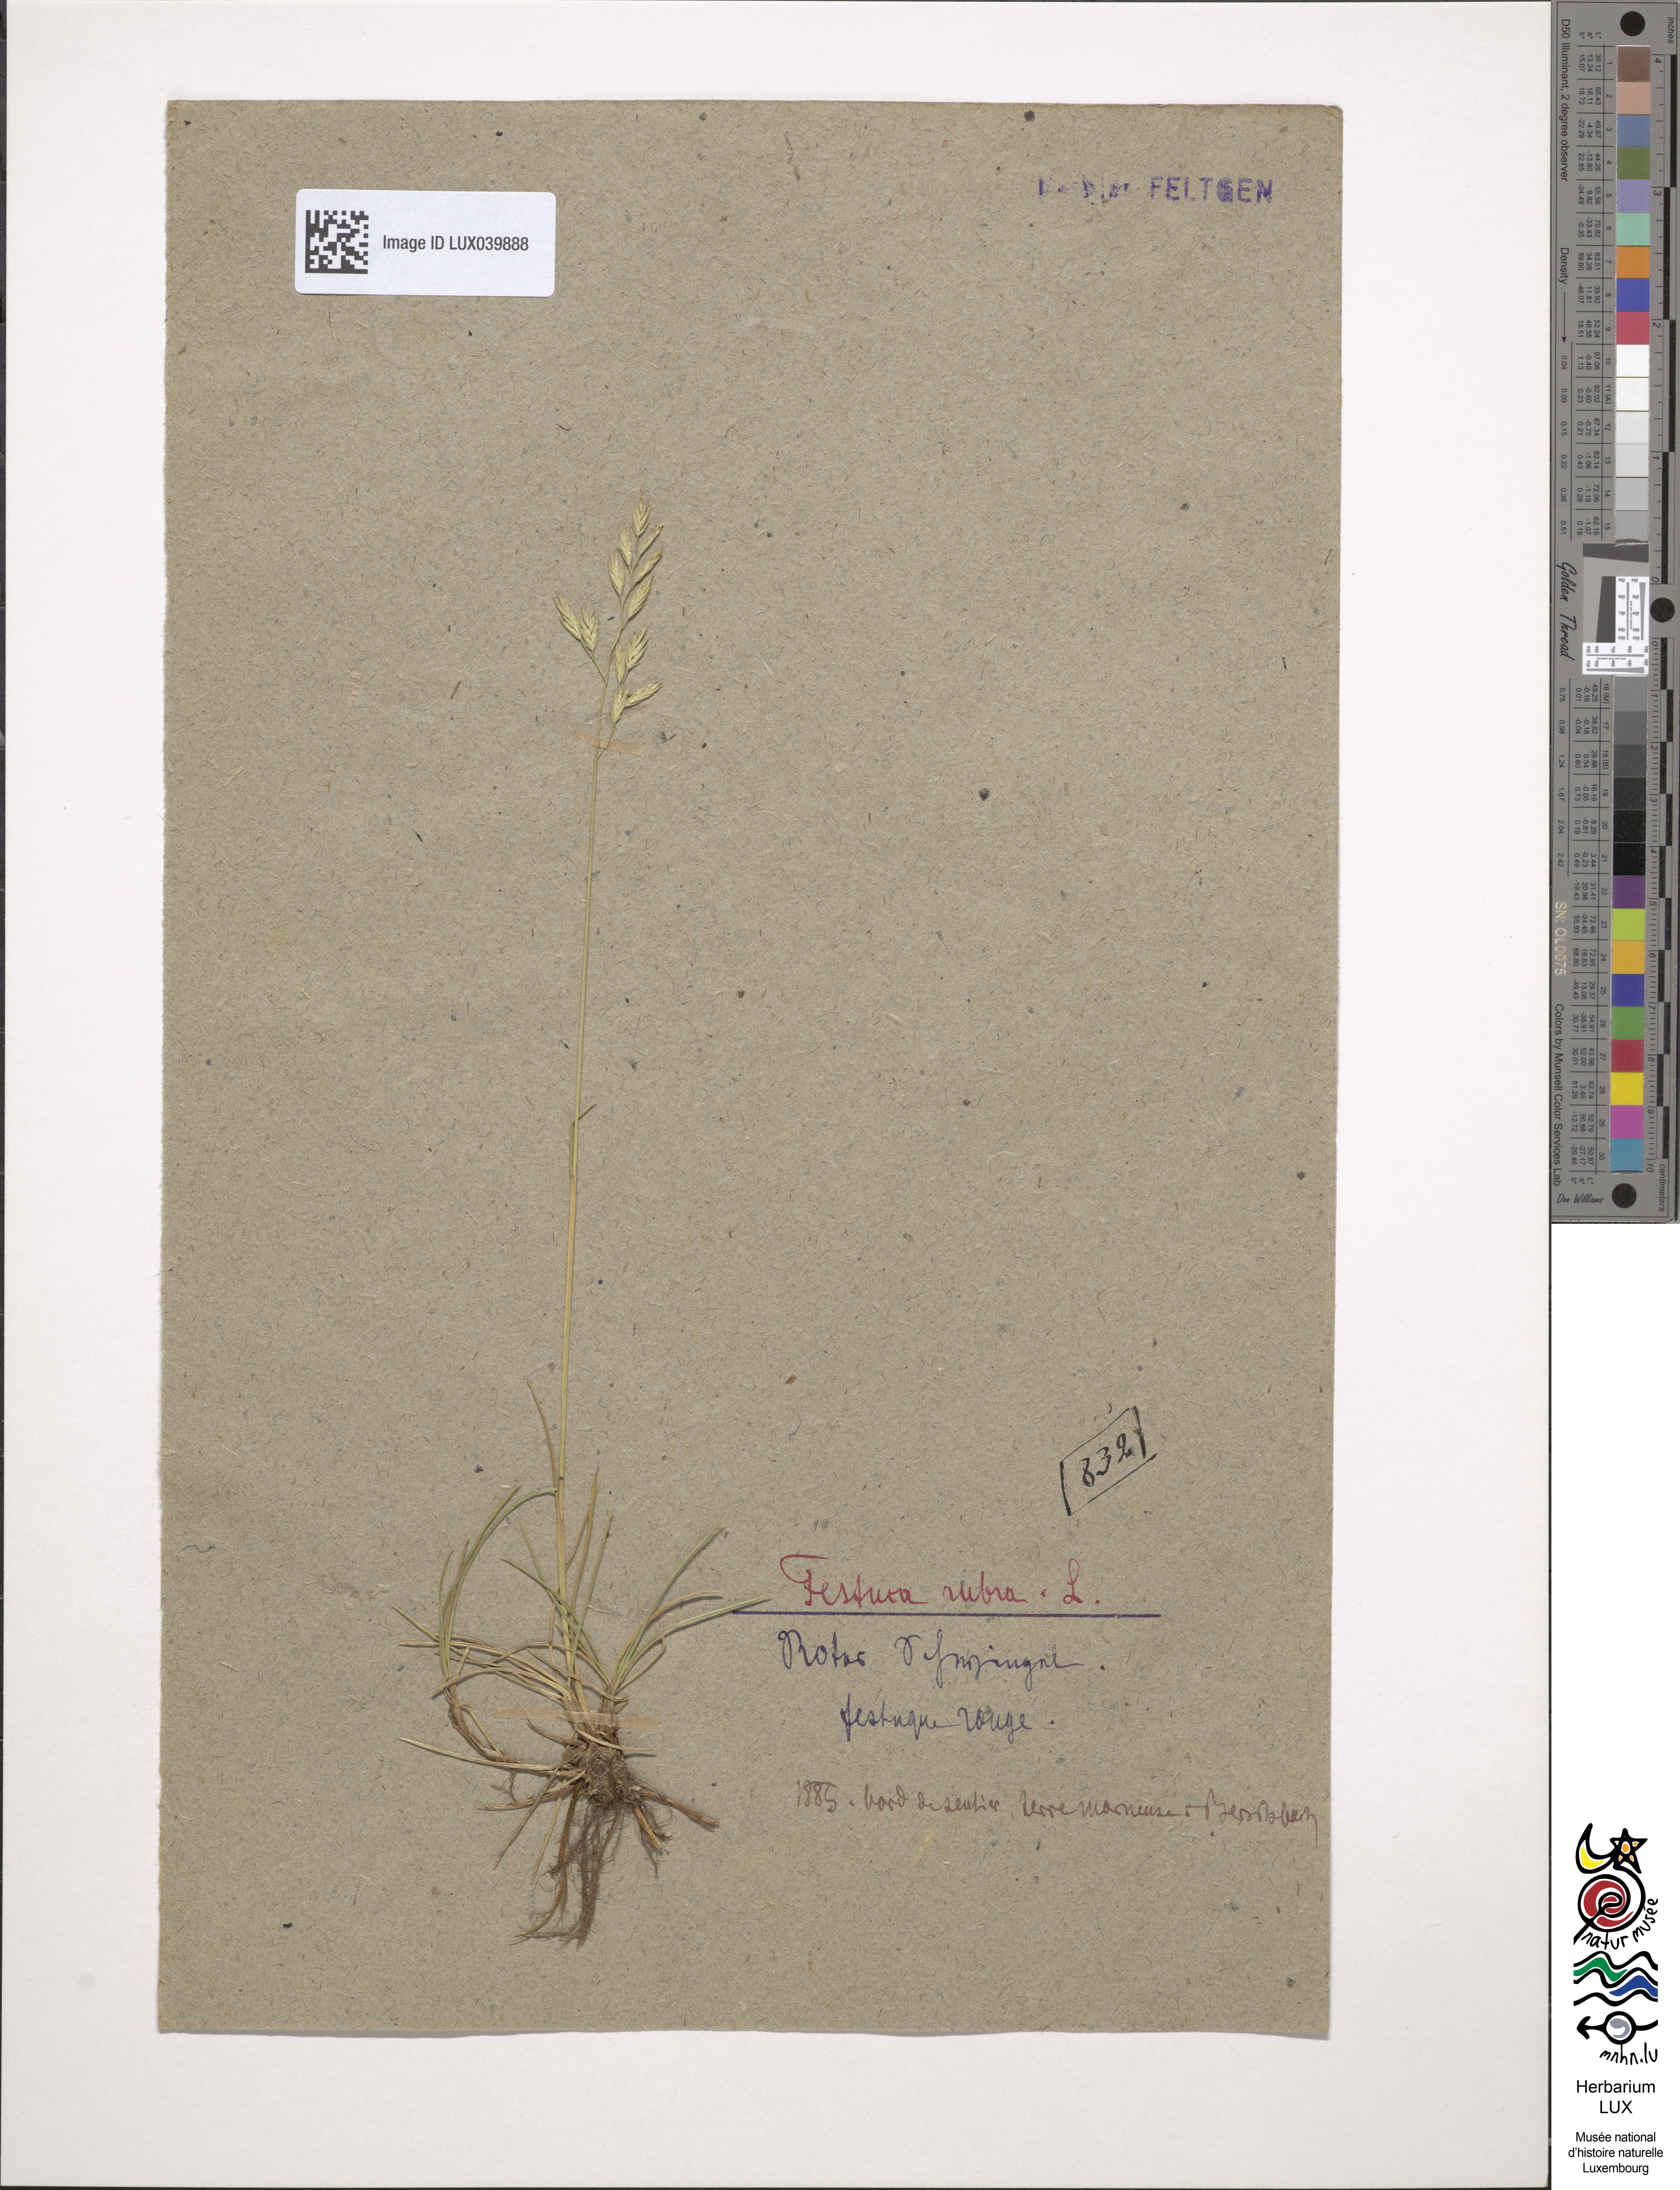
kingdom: Plantae
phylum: Tracheophyta
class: Liliopsida
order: Poales
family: Poaceae
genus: Festuca
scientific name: Festuca rubra
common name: Red fescue
